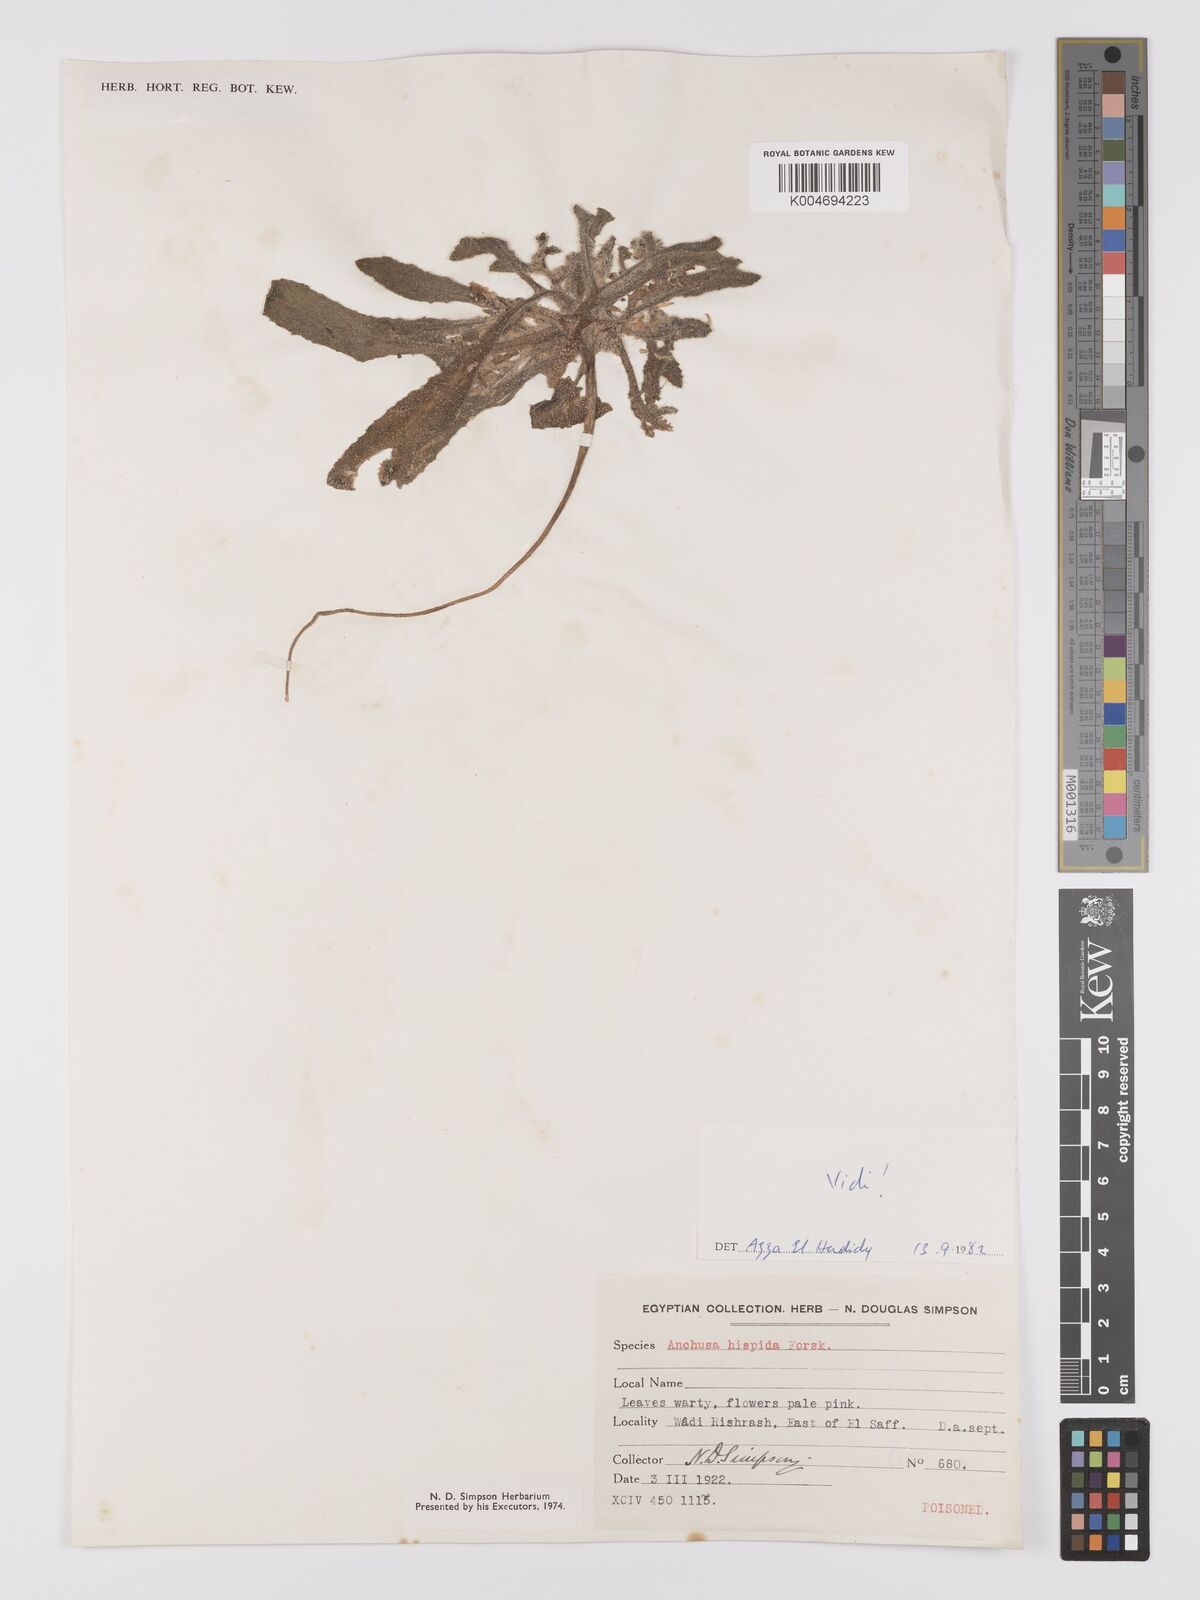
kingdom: Plantae
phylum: Tracheophyta
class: Magnoliopsida
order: Boraginales
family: Boraginaceae
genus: Gastrocotyle
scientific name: Gastrocotyle hispida
